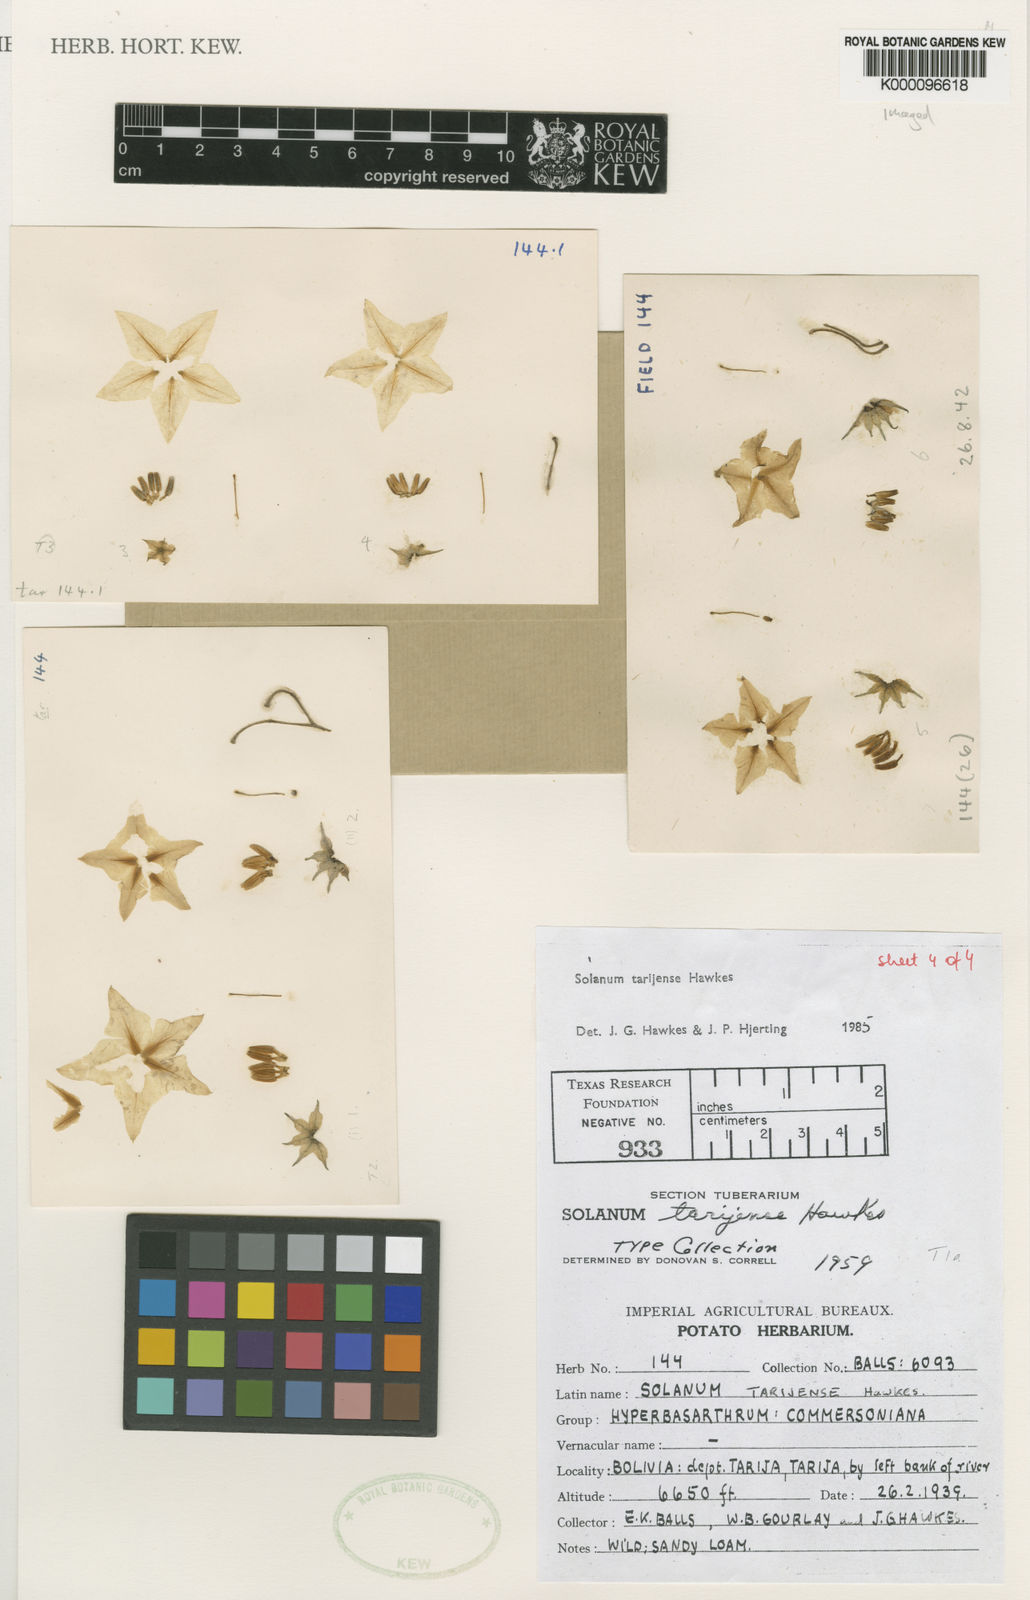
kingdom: Plantae
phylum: Tracheophyta
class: Magnoliopsida
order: Solanales
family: Solanaceae
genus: Solanum
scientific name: Solanum tarijense
